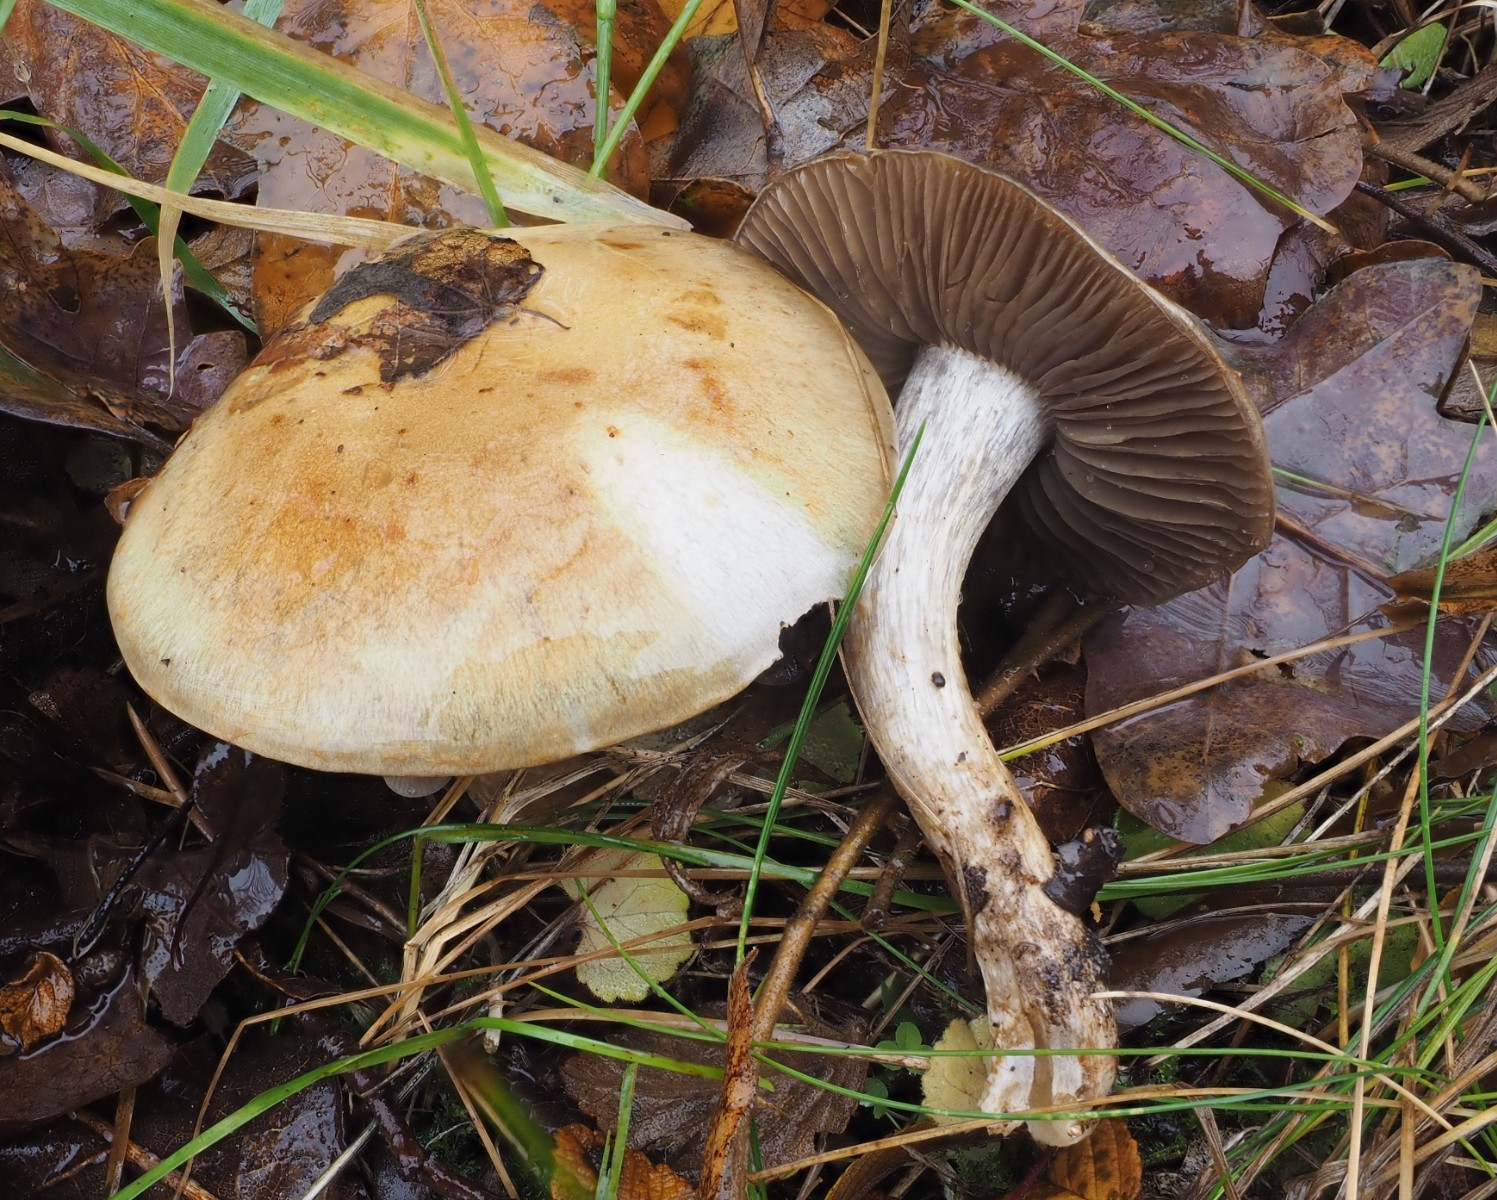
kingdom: Fungi
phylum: Basidiomycota
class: Agaricomycetes
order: Agaricales
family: Cortinariaceae
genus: Cortinarius
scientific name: Cortinarius
